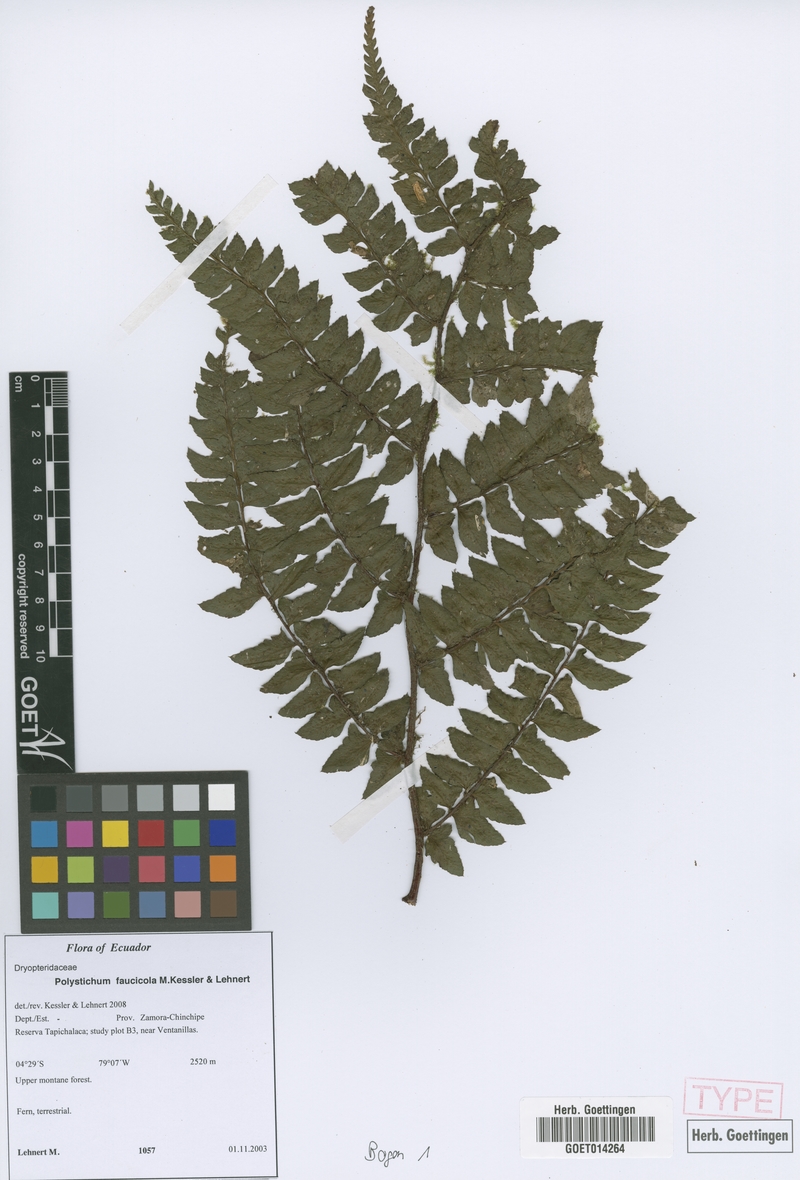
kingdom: Plantae
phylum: Tracheophyta
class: Polypodiopsida
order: Polypodiales
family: Dryopteridaceae
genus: Polystichum
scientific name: Polystichum faucicola
